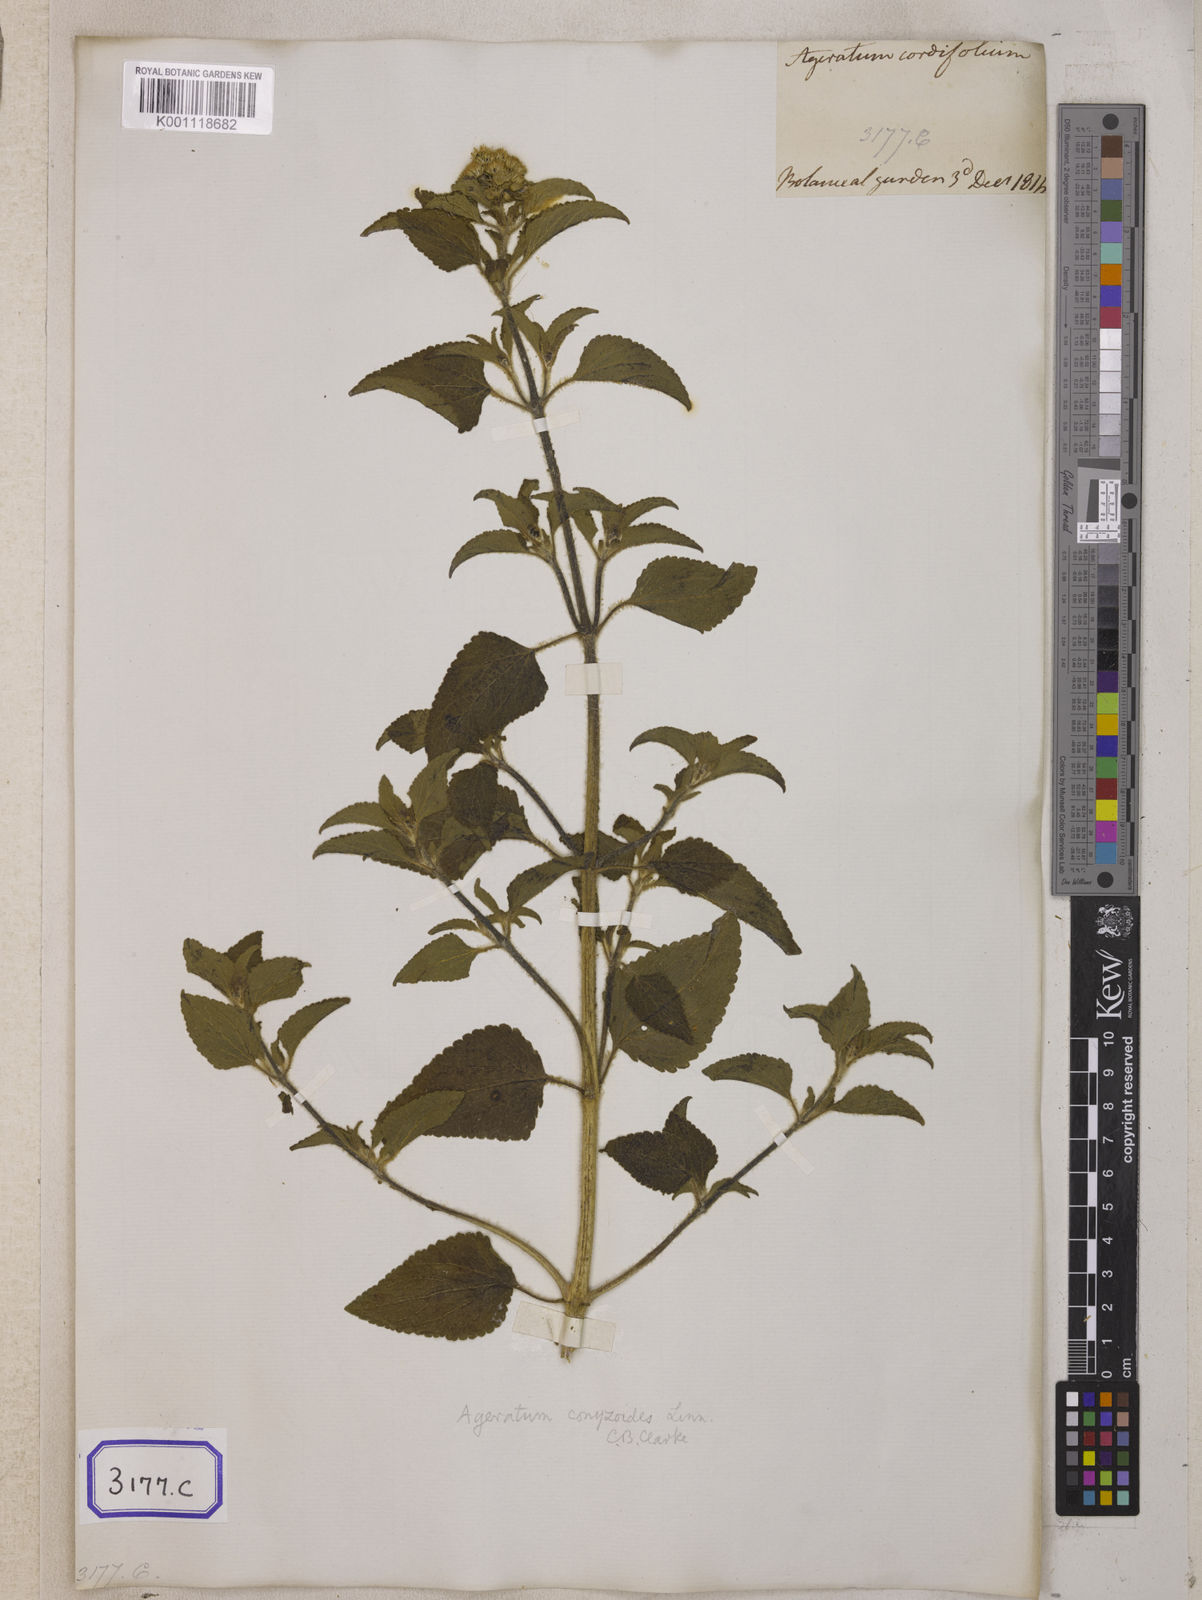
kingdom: Plantae
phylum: Tracheophyta
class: Magnoliopsida
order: Asterales
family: Asteraceae
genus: Ageratum
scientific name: Ageratum conyzoides
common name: Tropical whiteweed
